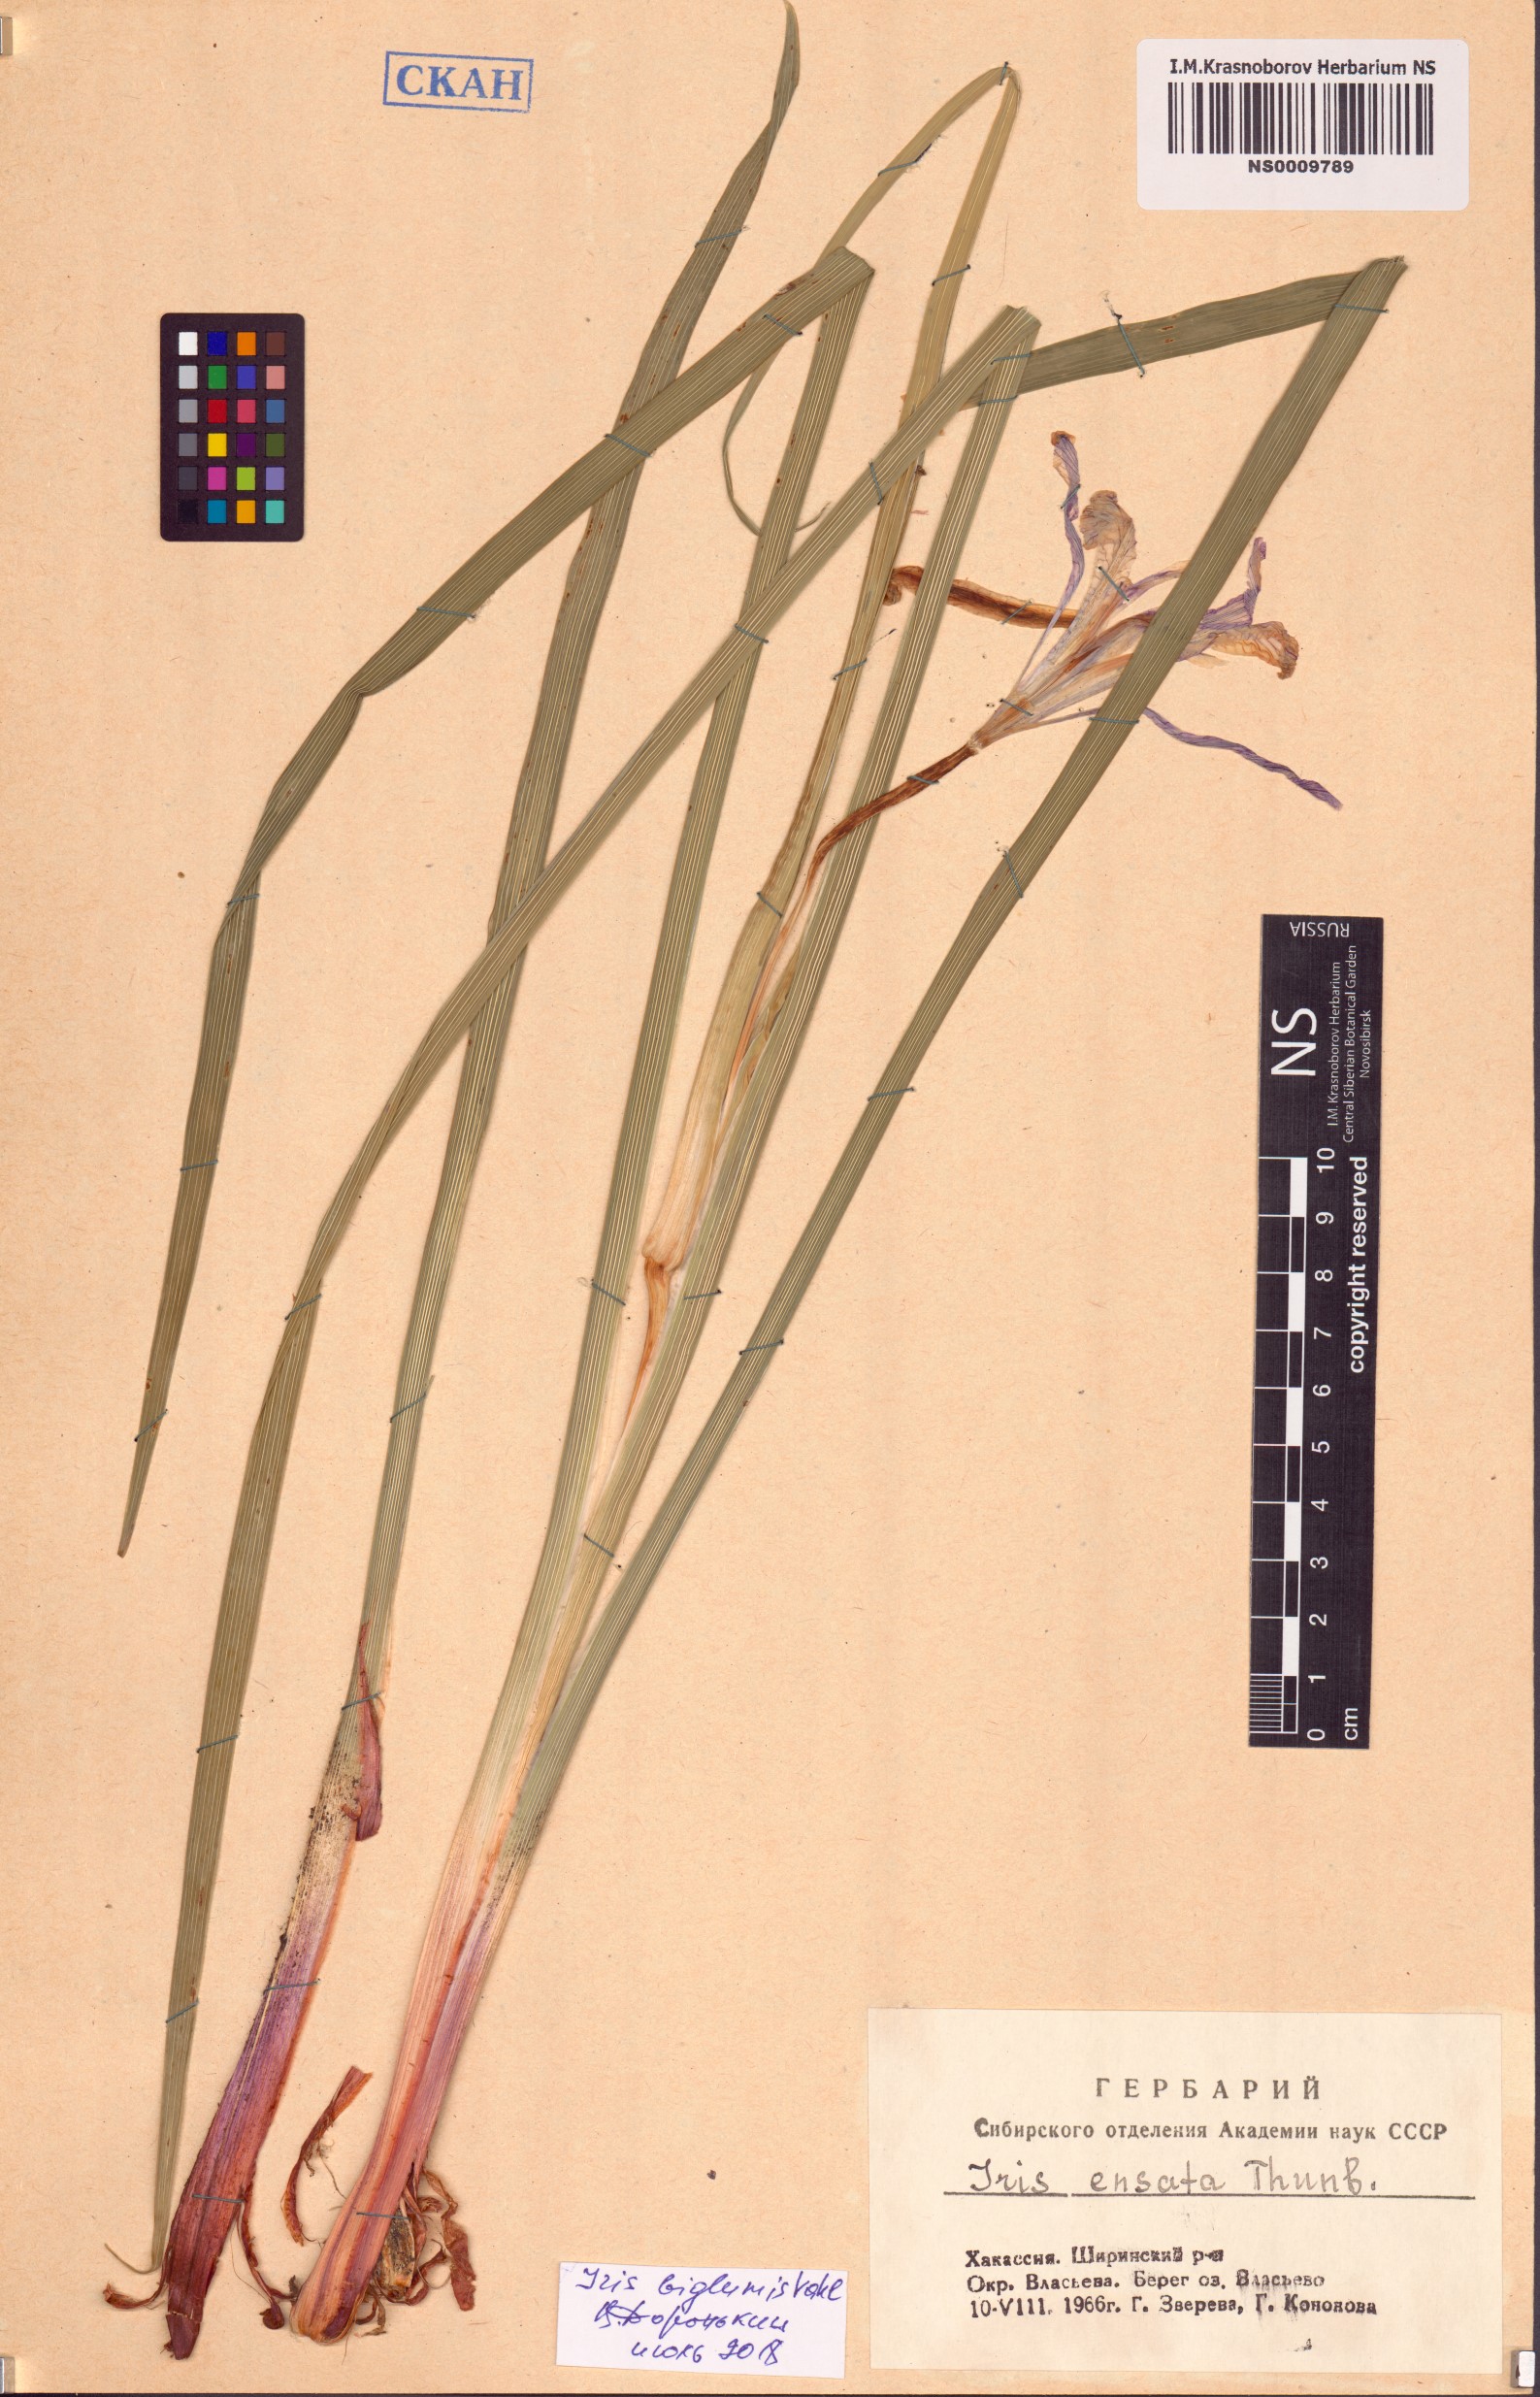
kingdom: Plantae
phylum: Tracheophyta
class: Liliopsida
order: Asparagales
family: Iridaceae
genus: Iris
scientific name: Iris lactea
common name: White-flower chinese iris
